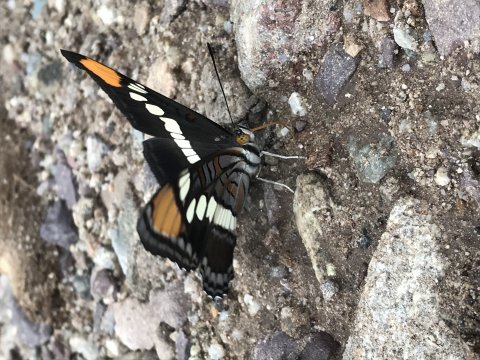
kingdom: Animalia
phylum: Arthropoda
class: Insecta
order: Lepidoptera
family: Nymphalidae
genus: Limenitis
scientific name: Limenitis bredowii
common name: Arizona Sister
